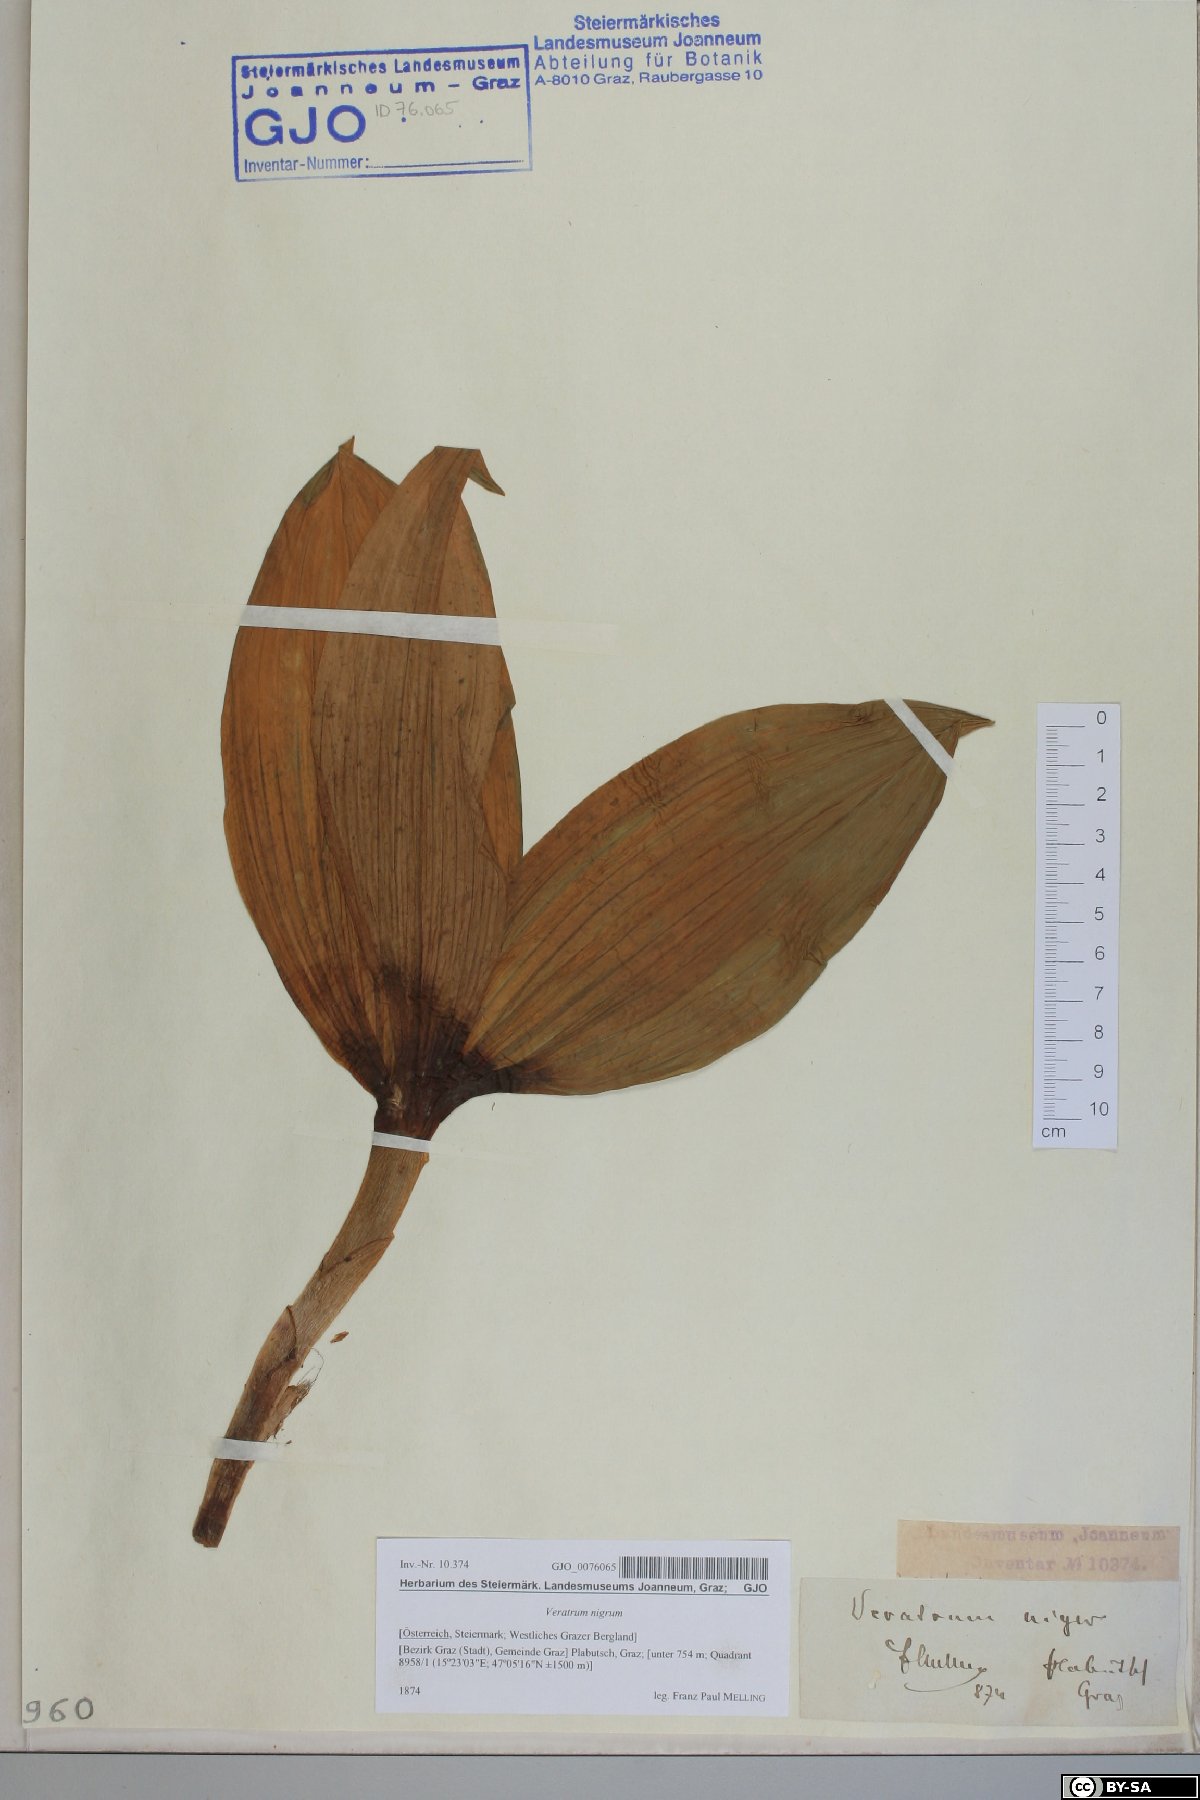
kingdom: Plantae
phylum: Tracheophyta
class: Liliopsida
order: Liliales
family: Melanthiaceae
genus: Veratrum
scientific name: Veratrum nigrum
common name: Black veratrum
